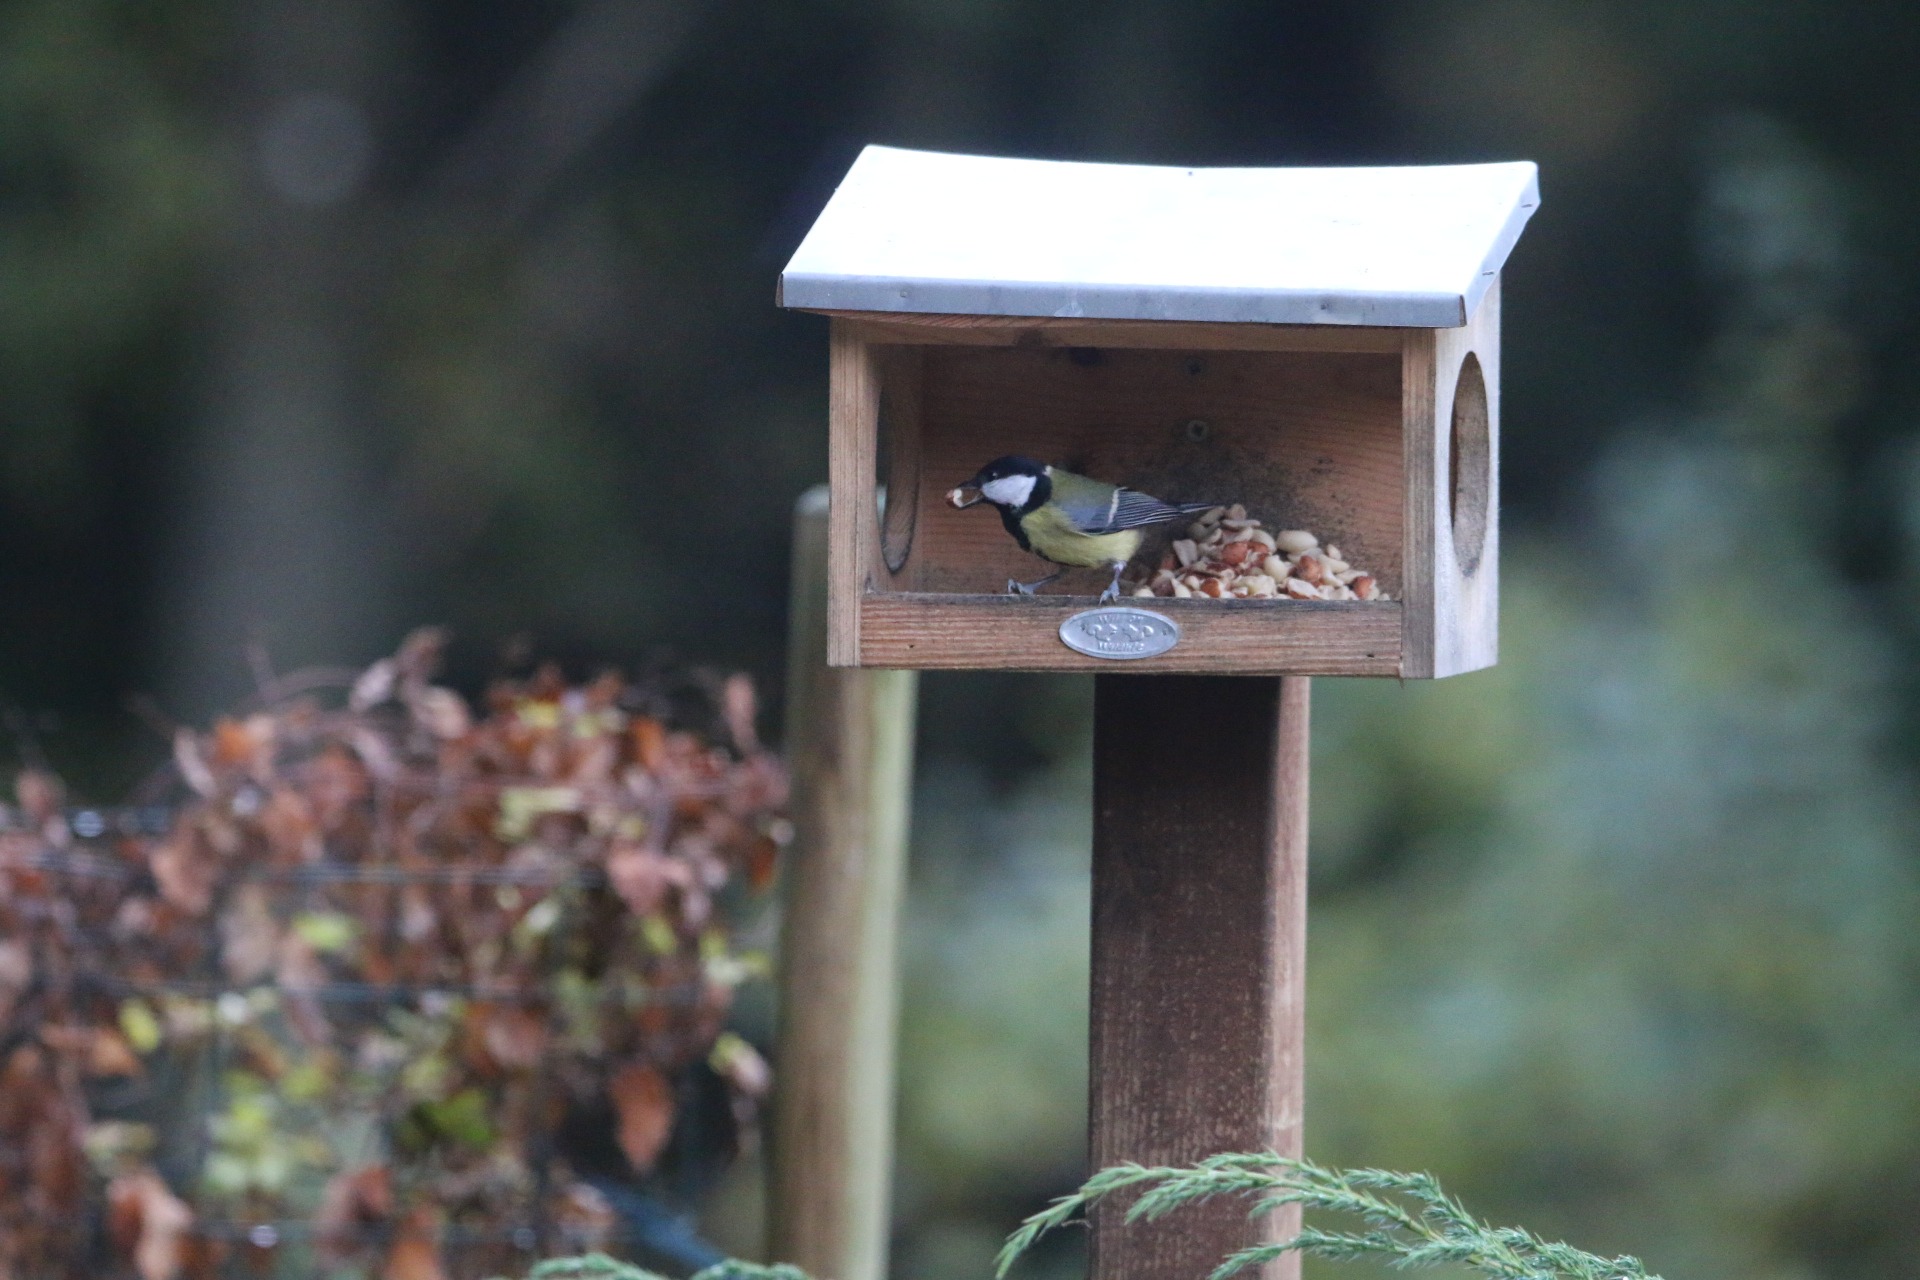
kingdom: Animalia
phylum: Chordata
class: Aves
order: Passeriformes
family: Paridae
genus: Parus
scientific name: Parus major
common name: Musvit
